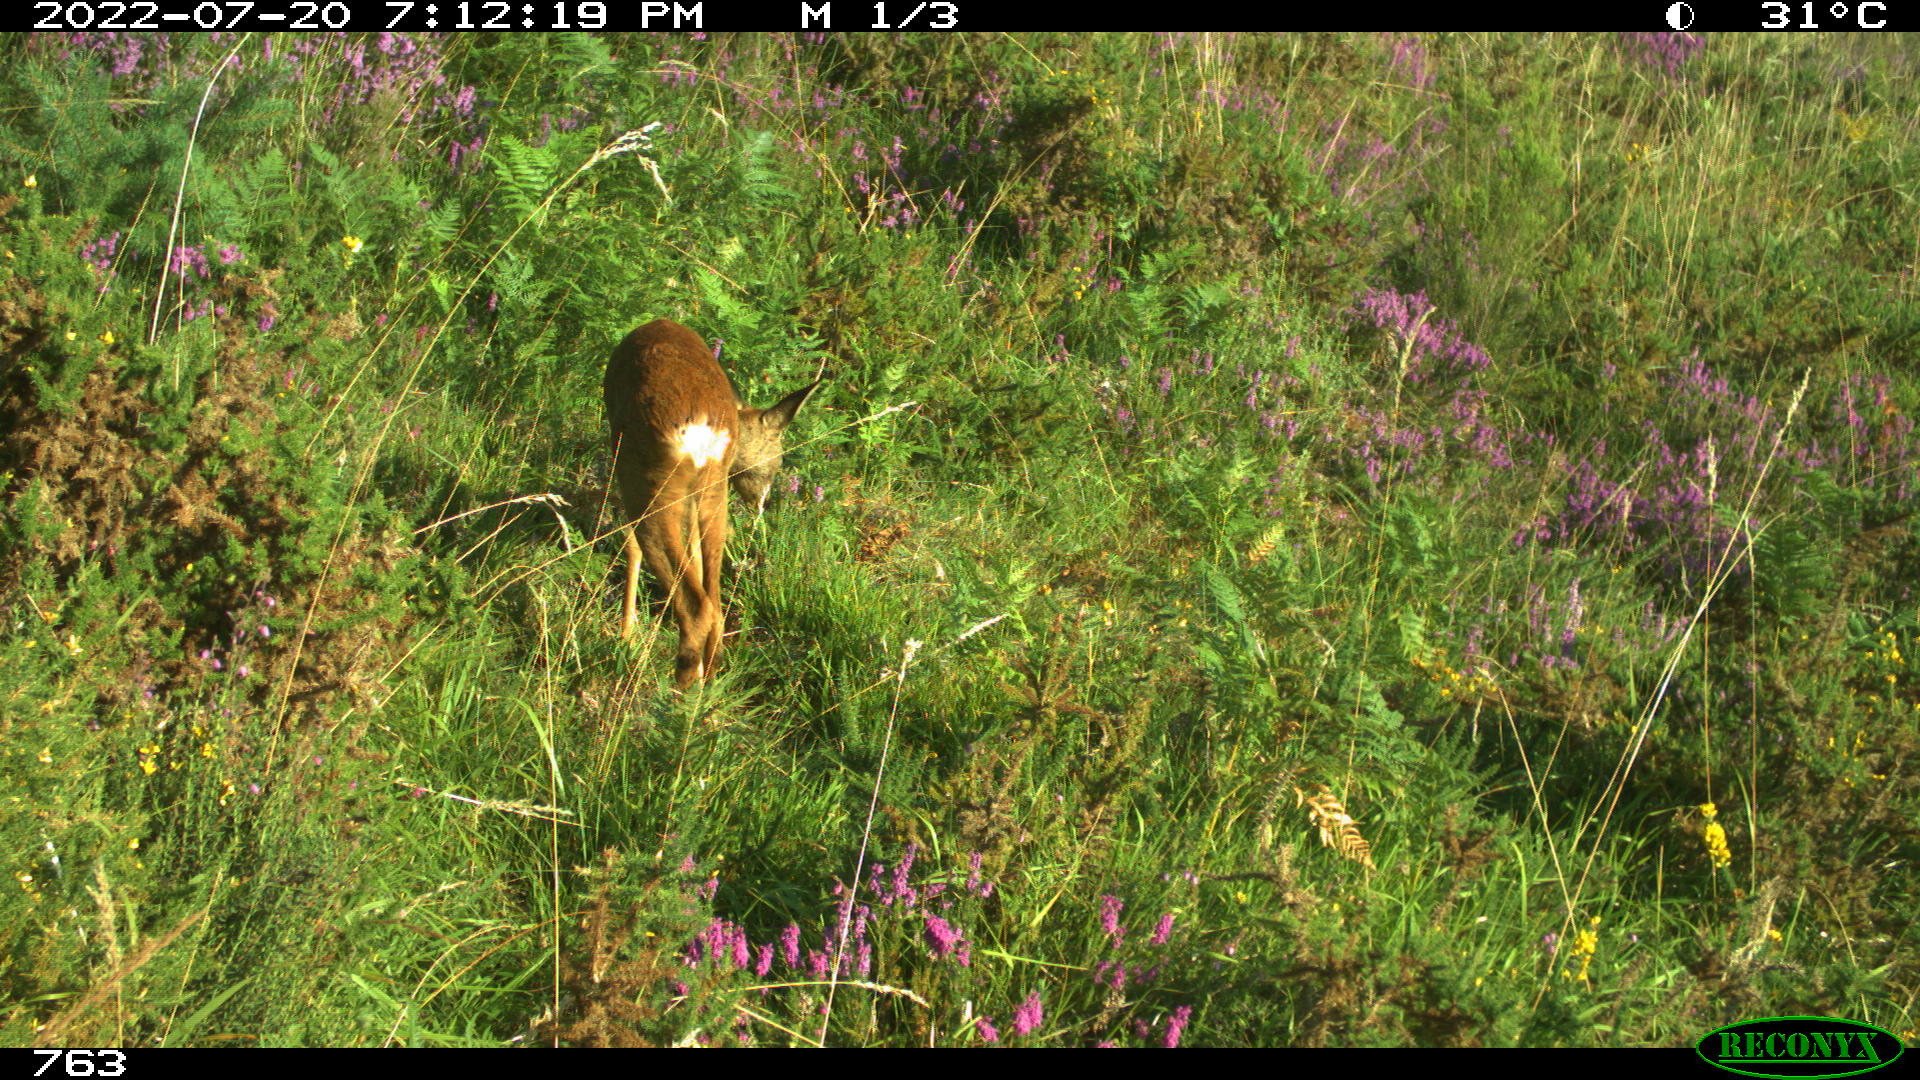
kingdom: Animalia
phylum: Chordata
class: Mammalia
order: Artiodactyla
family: Cervidae
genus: Capreolus
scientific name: Capreolus capreolus
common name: Western roe deer
